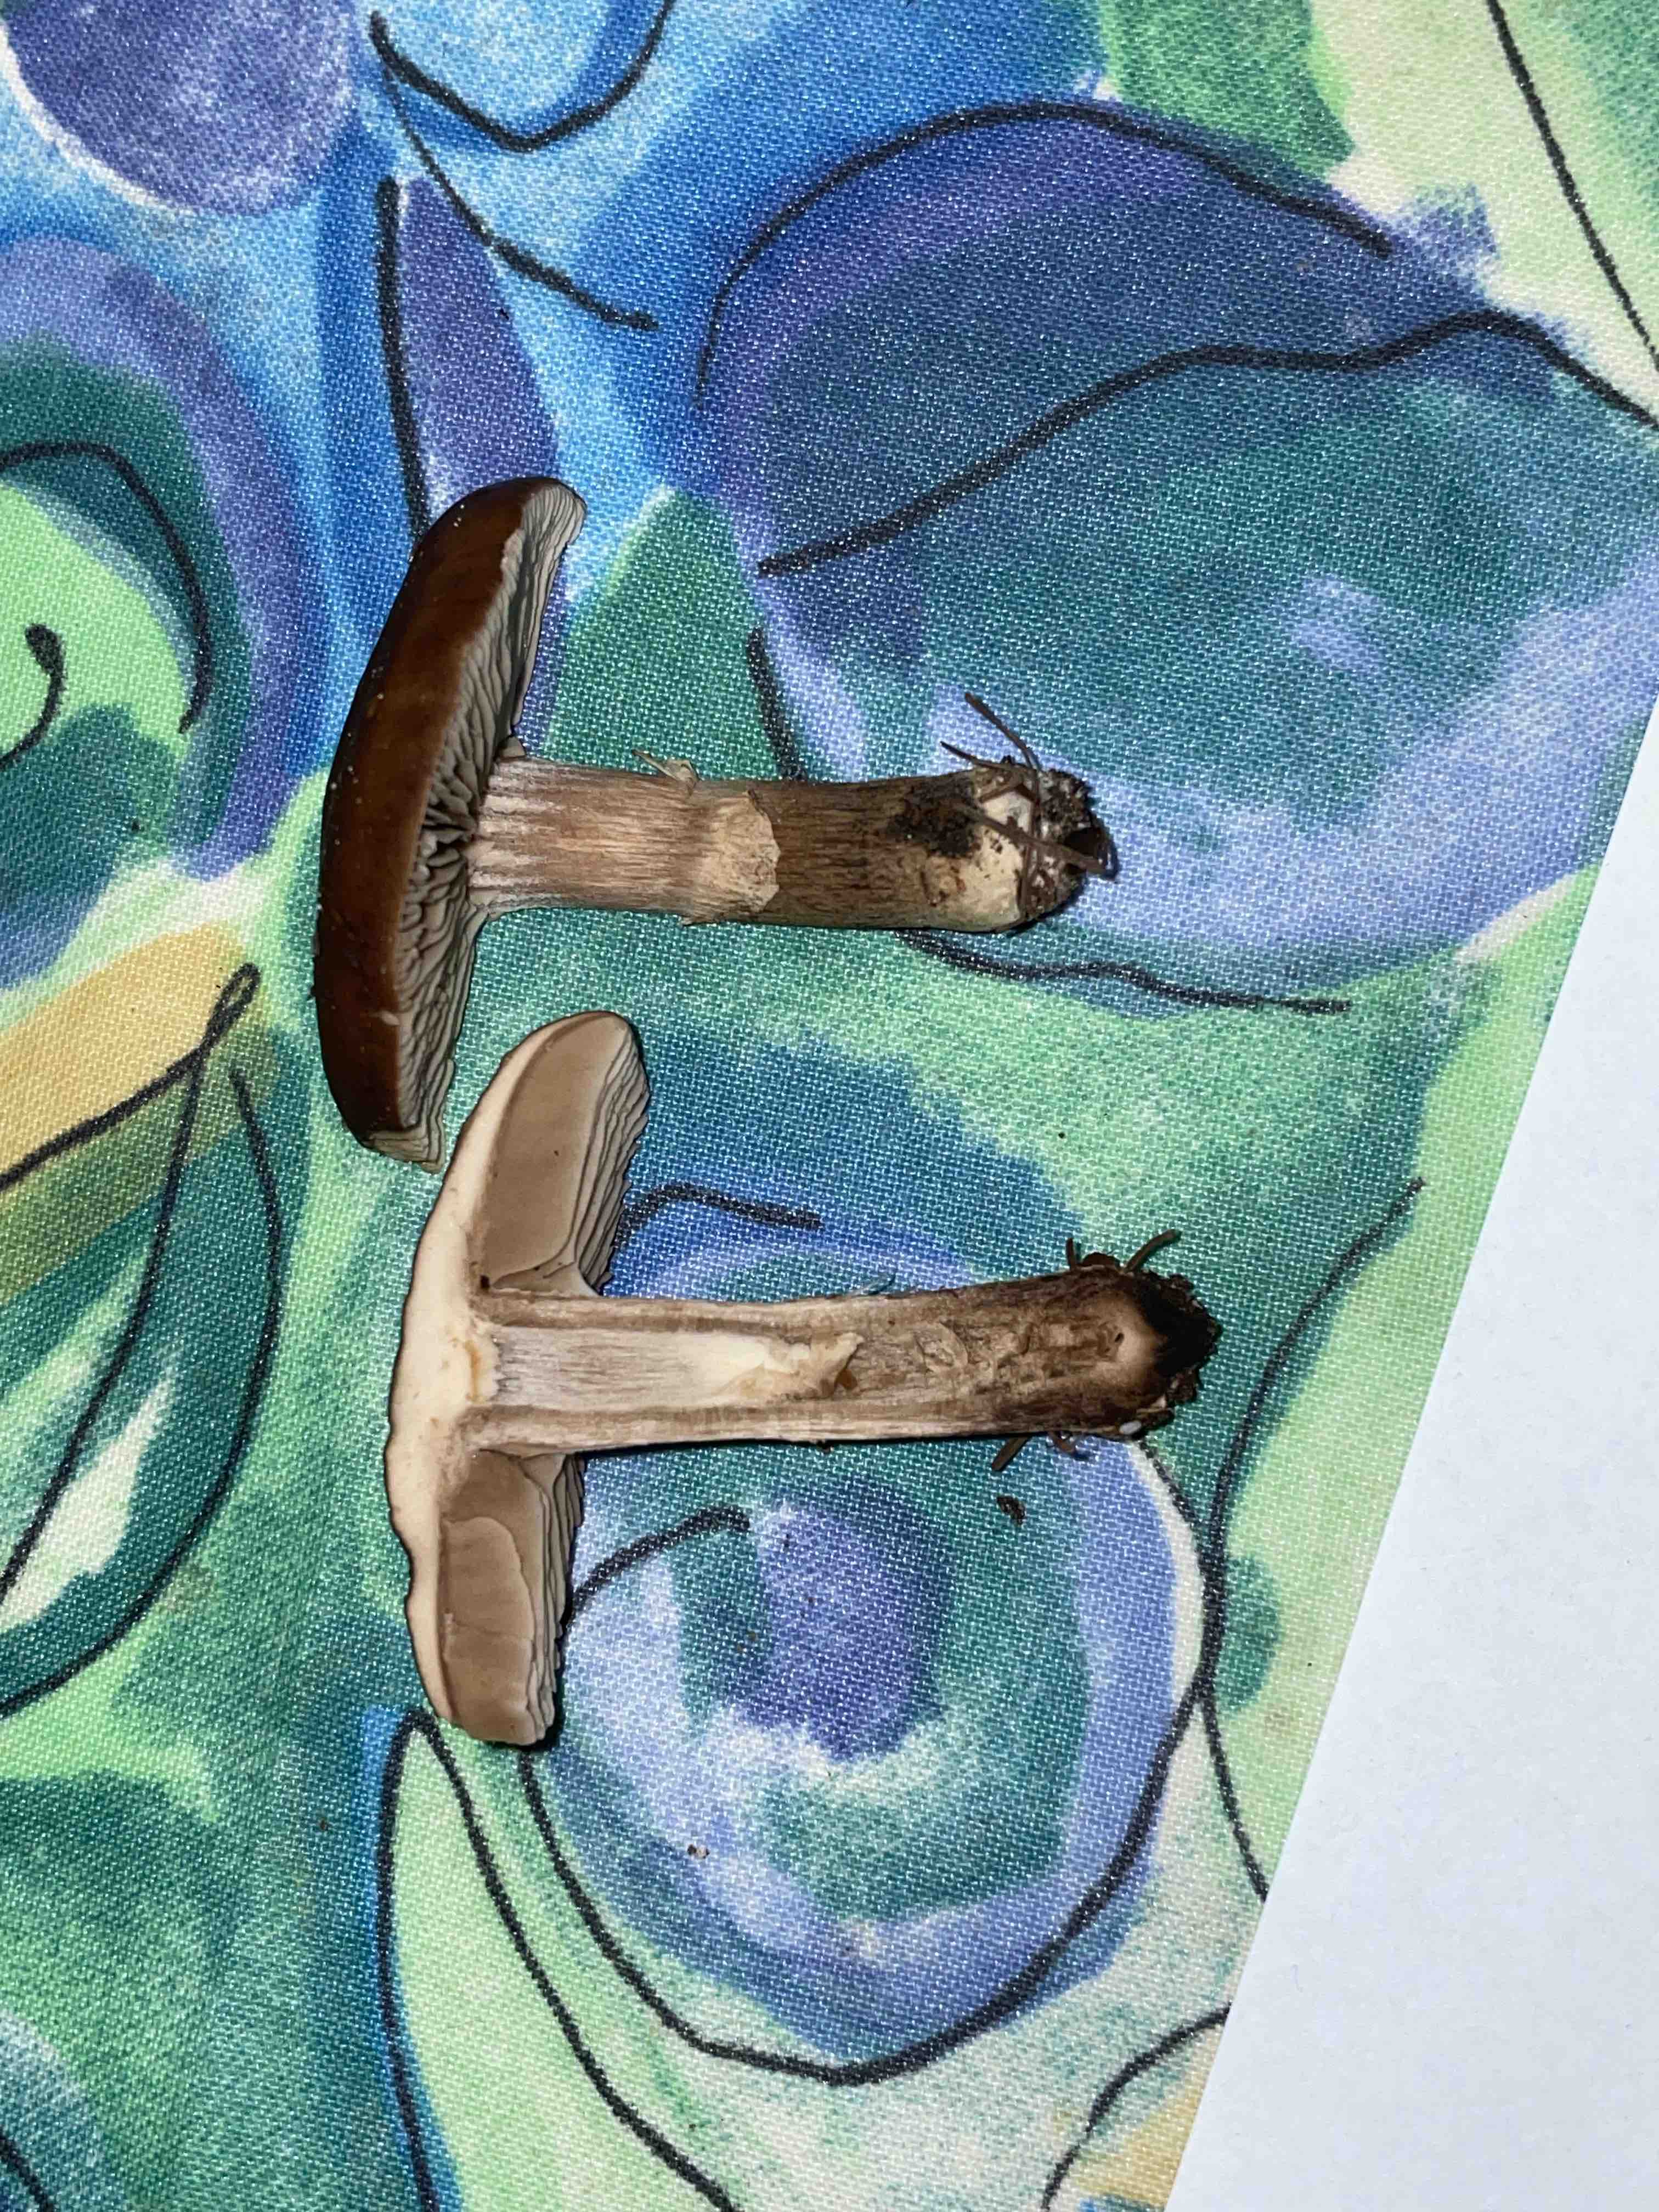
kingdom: Fungi
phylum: Basidiomycota
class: Agaricomycetes
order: Agaricales
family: Tubariaceae
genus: Cyclocybe
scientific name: Cyclocybe erebia
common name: mørk agerhat
